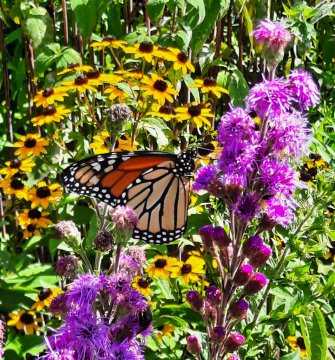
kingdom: Animalia
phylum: Arthropoda
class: Insecta
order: Lepidoptera
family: Nymphalidae
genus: Danaus
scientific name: Danaus plexippus
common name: Monarch
